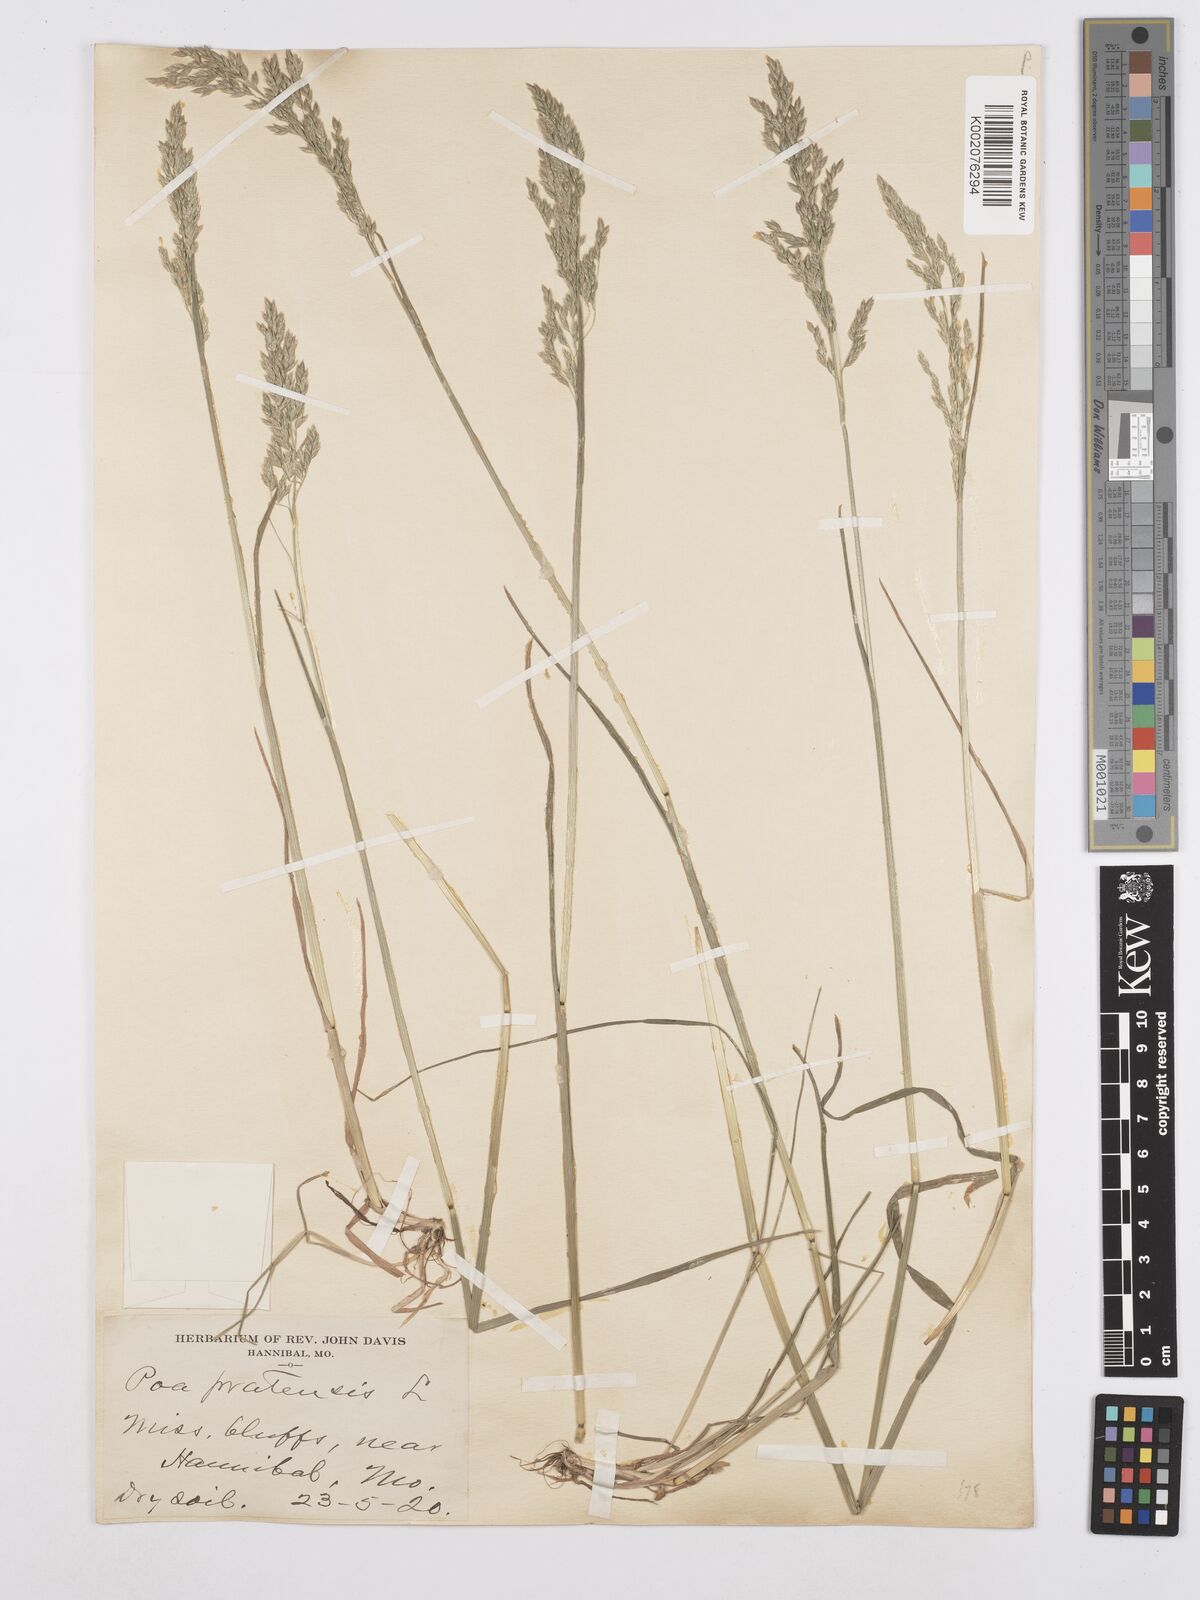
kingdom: Plantae
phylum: Tracheophyta
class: Liliopsida
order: Poales
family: Poaceae
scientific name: Poaceae
